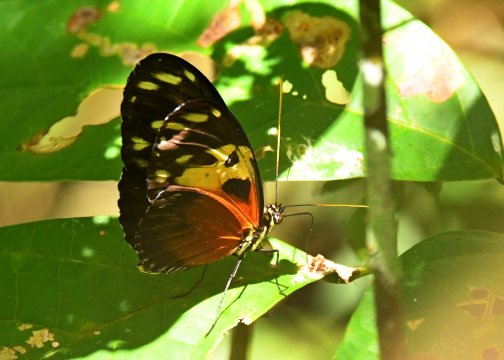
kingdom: Animalia
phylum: Arthropoda
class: Insecta
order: Lepidoptera
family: Nymphalidae
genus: Heliconius
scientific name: Heliconius ismenius
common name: Tiger-striped Longwing
